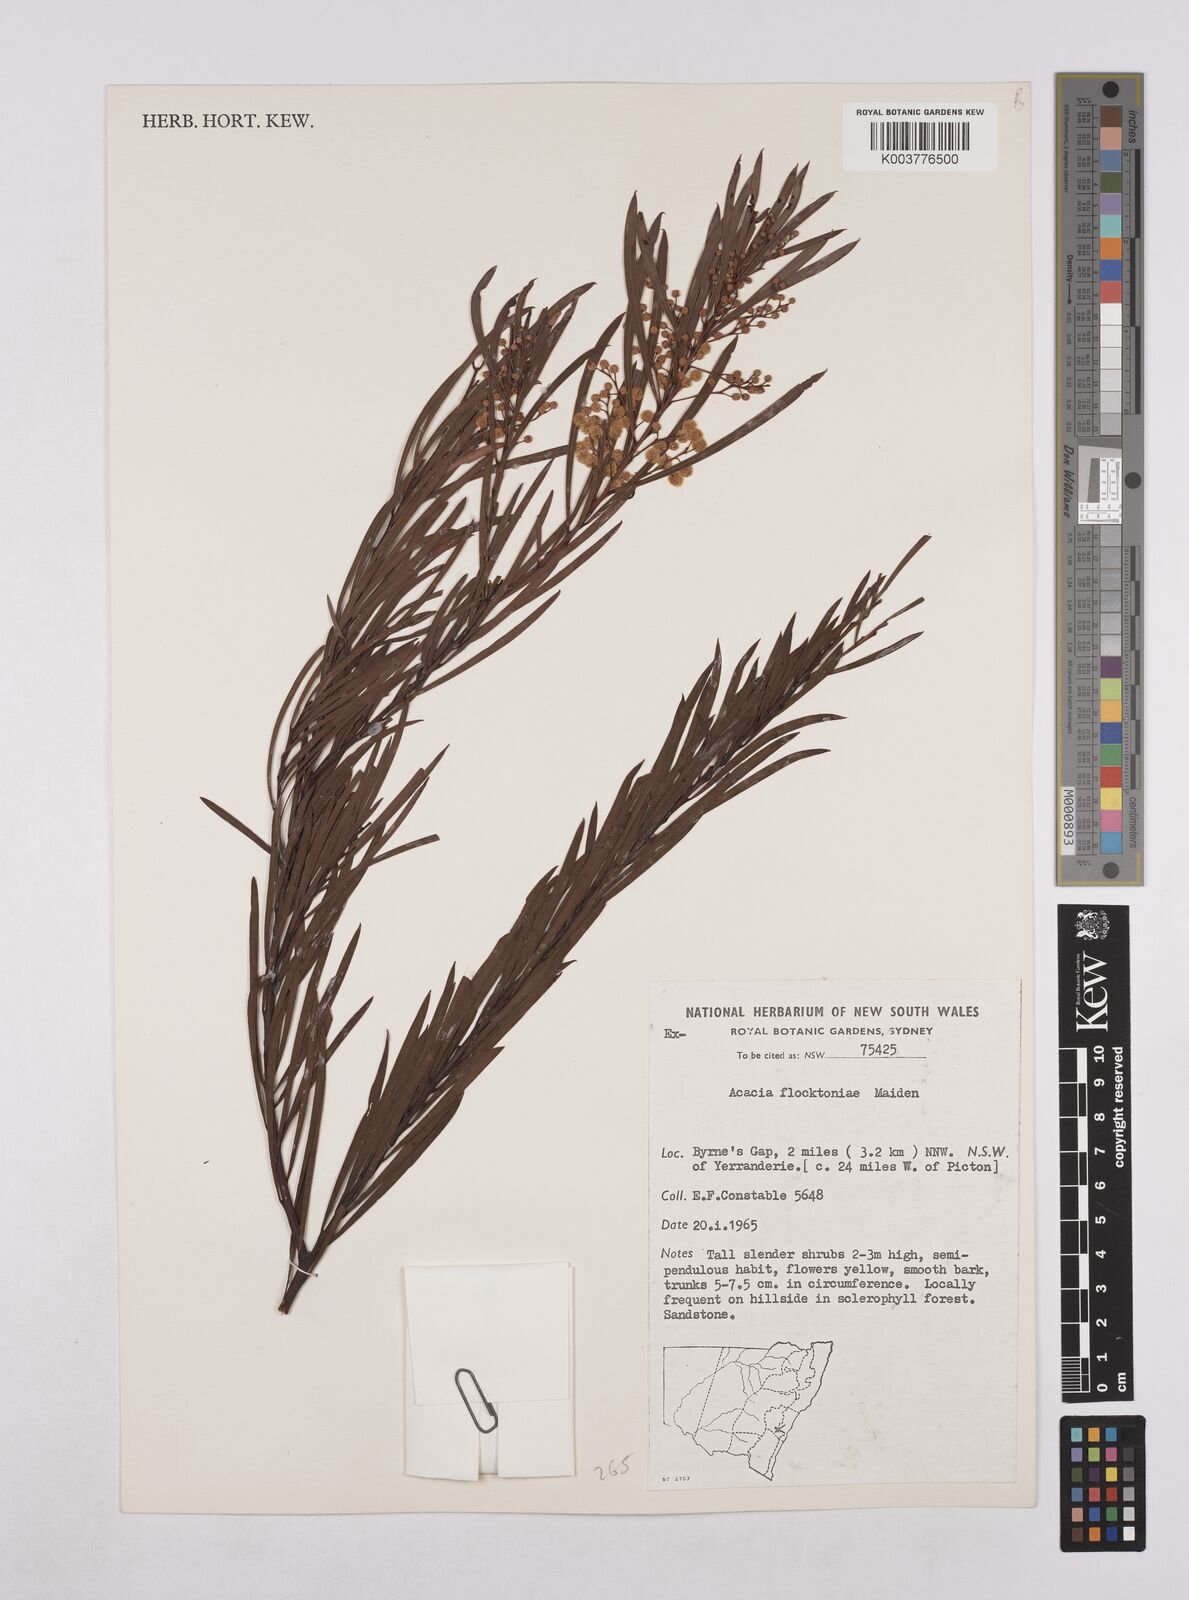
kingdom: Plantae
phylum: Tracheophyta
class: Magnoliopsida
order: Fabales
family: Fabaceae
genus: Acacia
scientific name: Acacia flocktoniae
